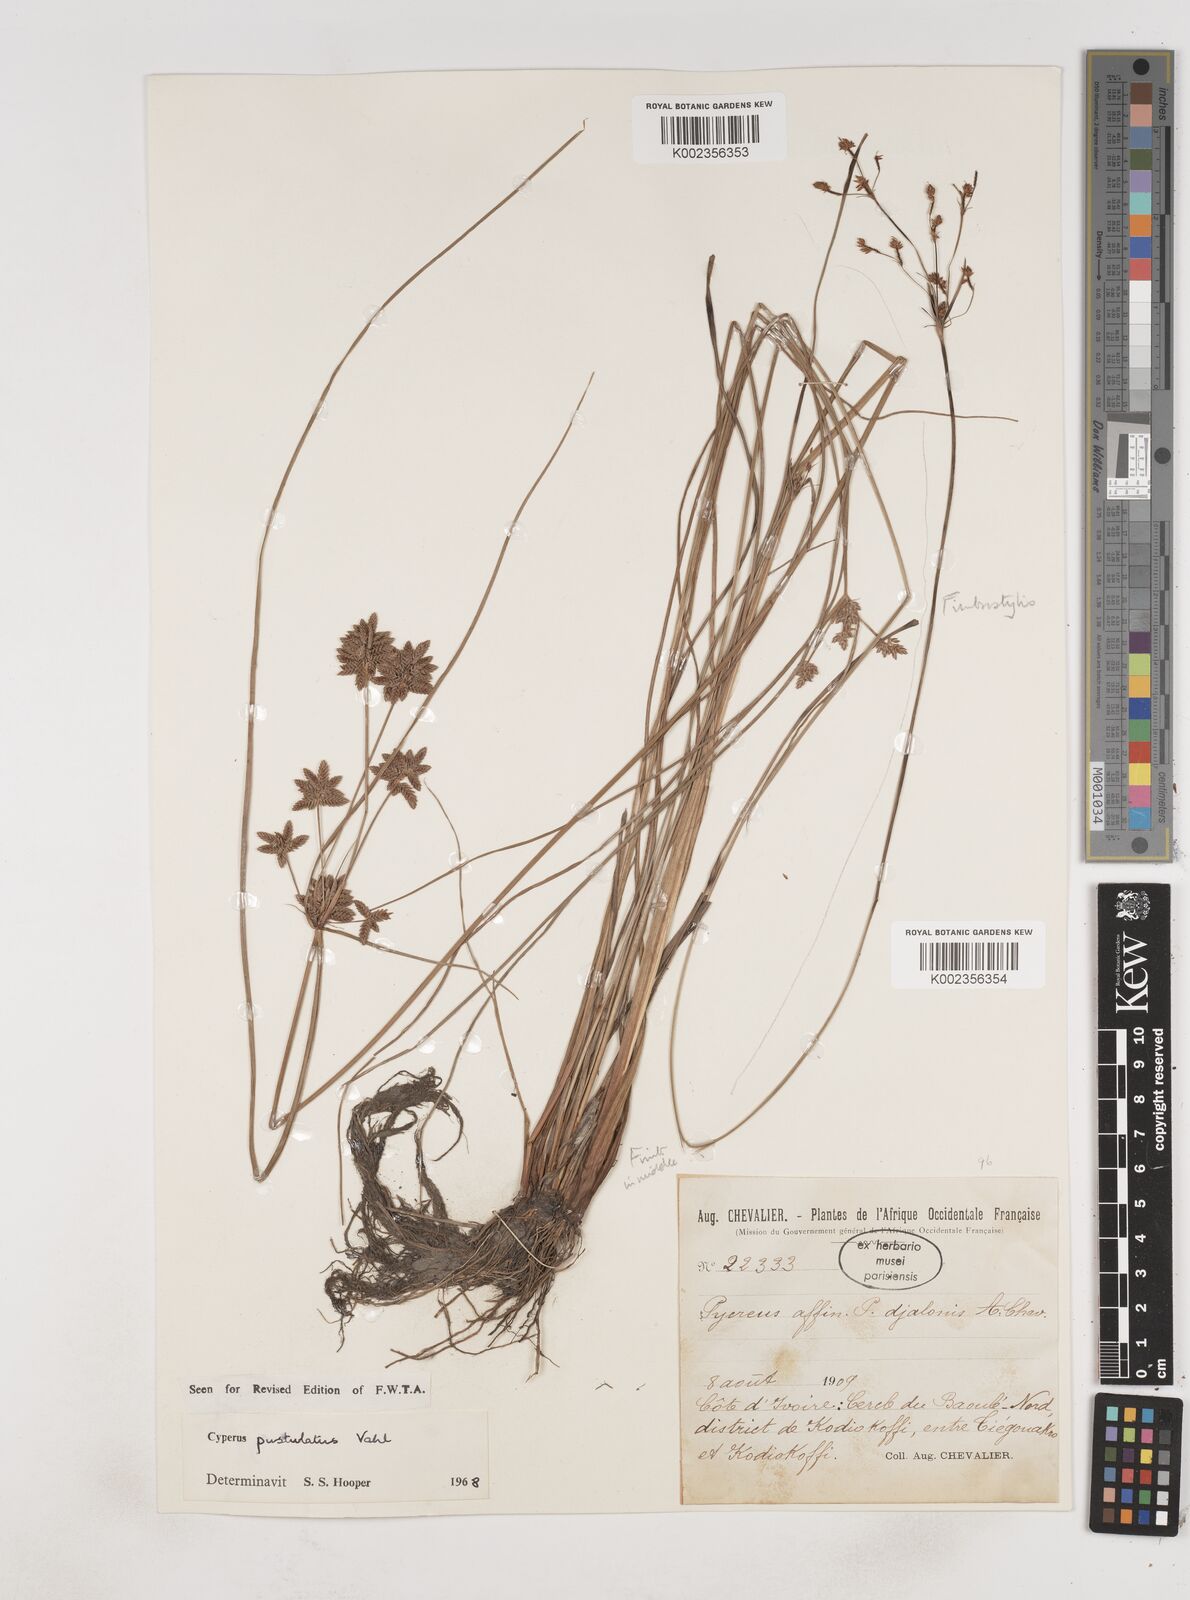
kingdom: Plantae
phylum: Tracheophyta
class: Liliopsida
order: Poales
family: Cyperaceae
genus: Cyperus
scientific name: Cyperus pustulatus
